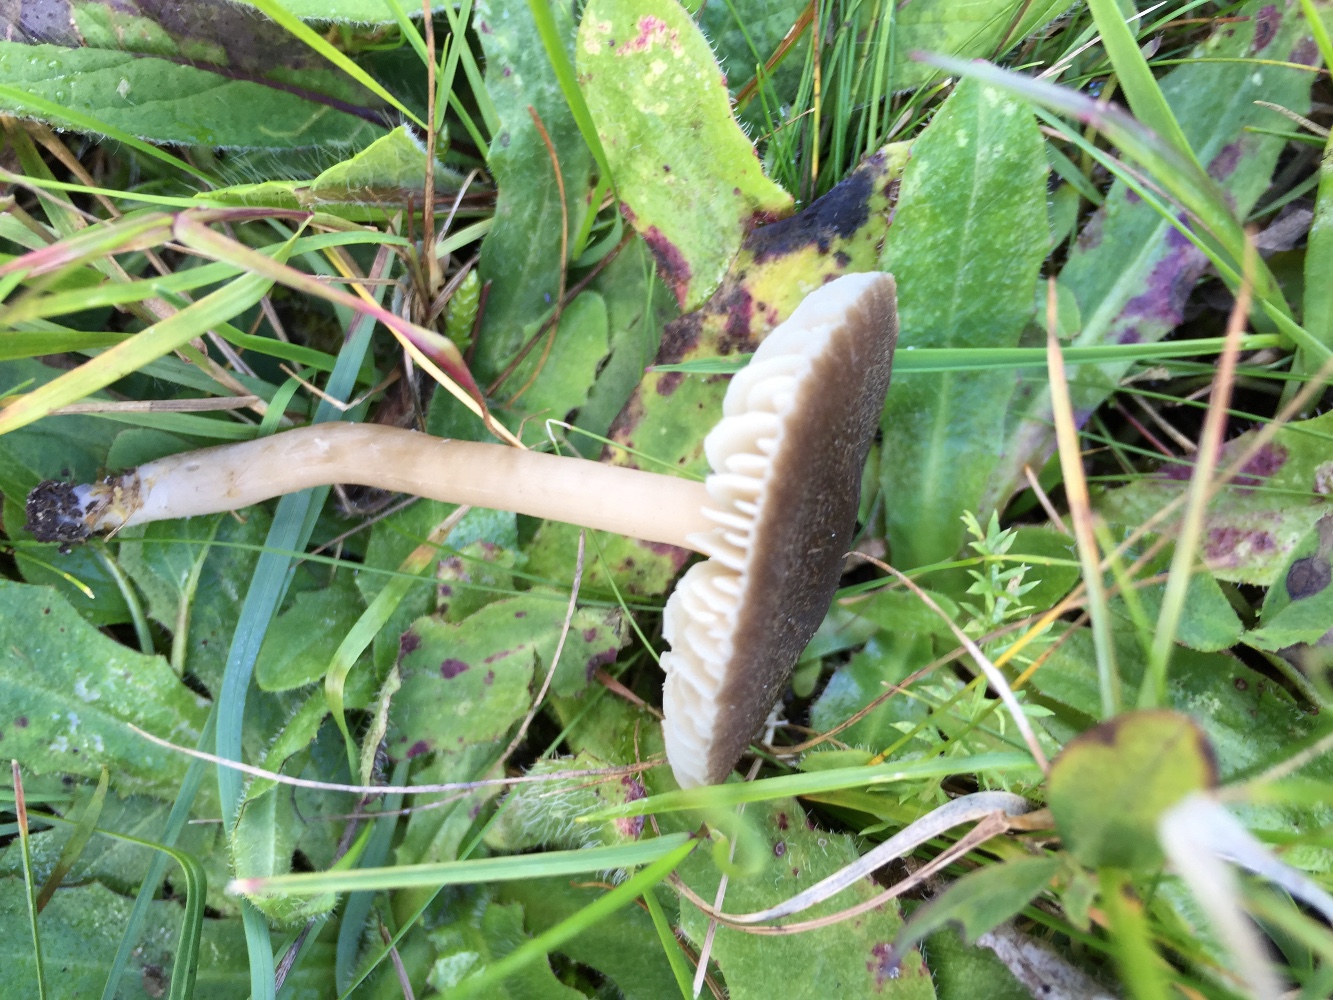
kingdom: Fungi
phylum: Basidiomycota
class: Agaricomycetes
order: Agaricales
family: Hygrophoraceae
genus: Neohygrocybe
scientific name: Neohygrocybe nitrata
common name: stinkende vokshat
